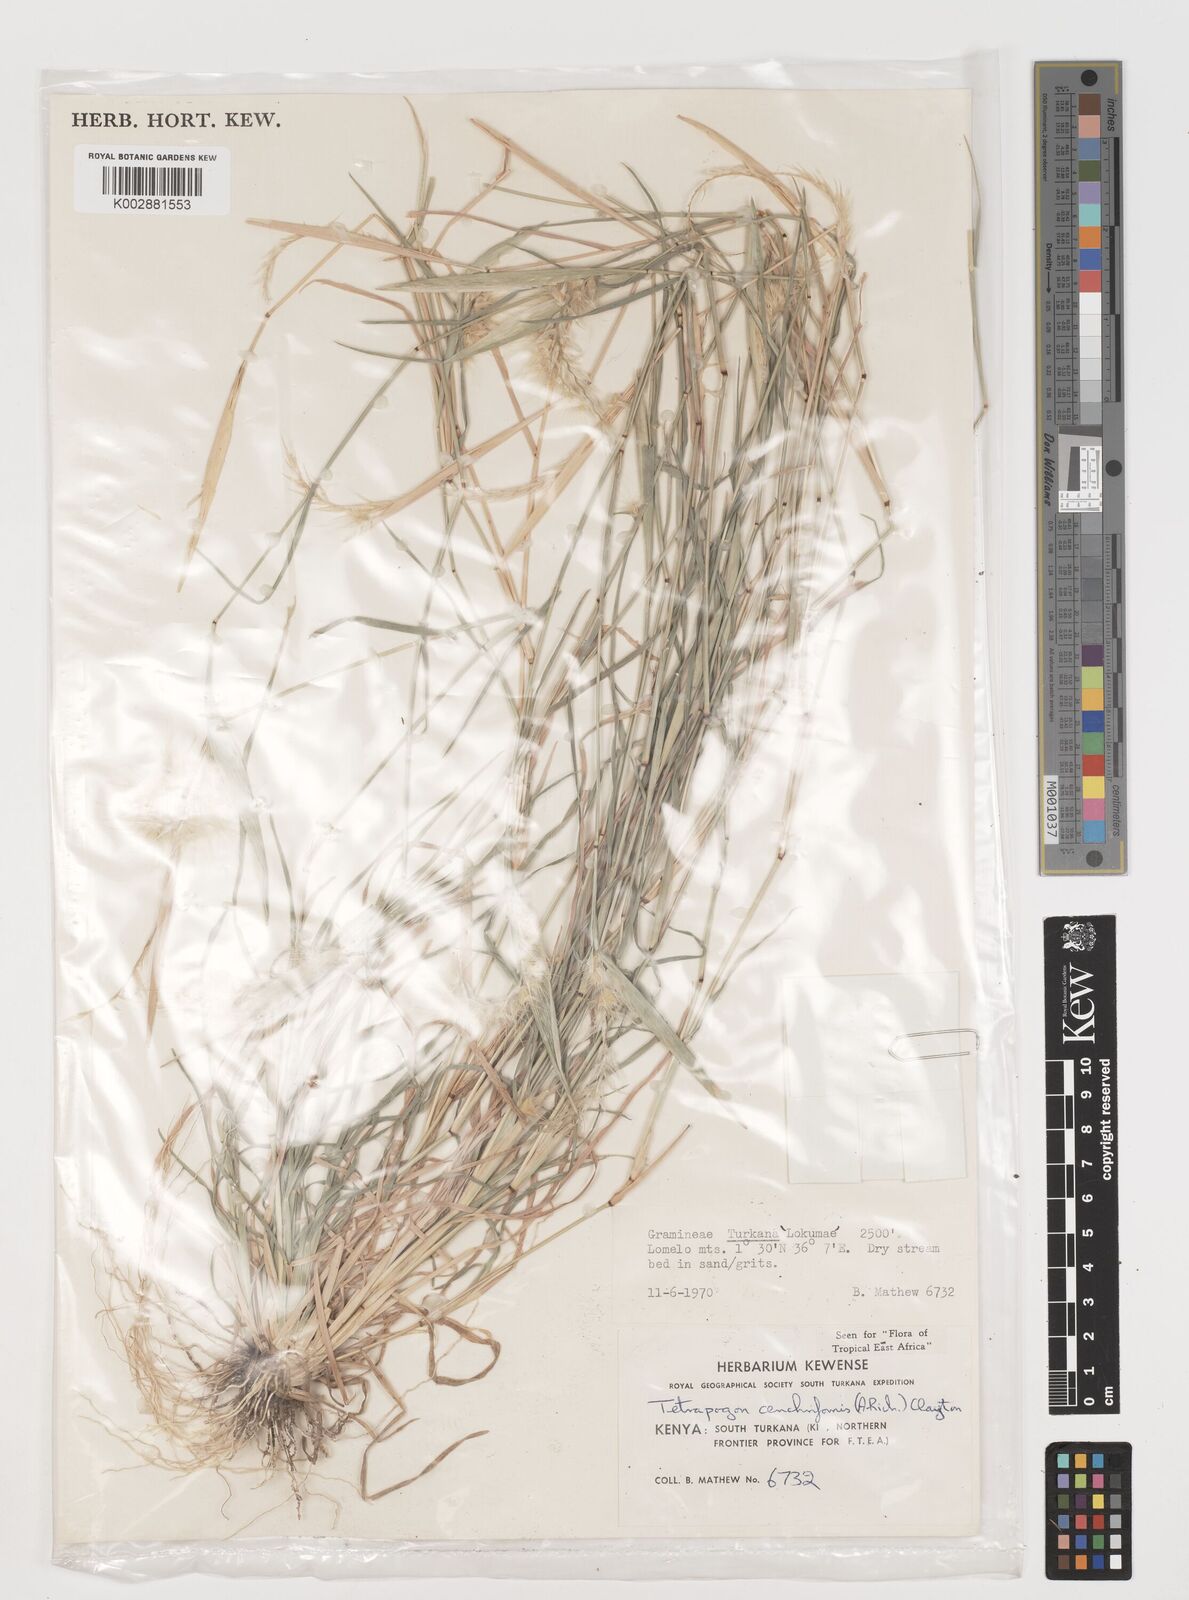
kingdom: Plantae
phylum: Tracheophyta
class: Liliopsida
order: Poales
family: Poaceae
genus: Tetrapogon
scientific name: Tetrapogon cenchriformis
